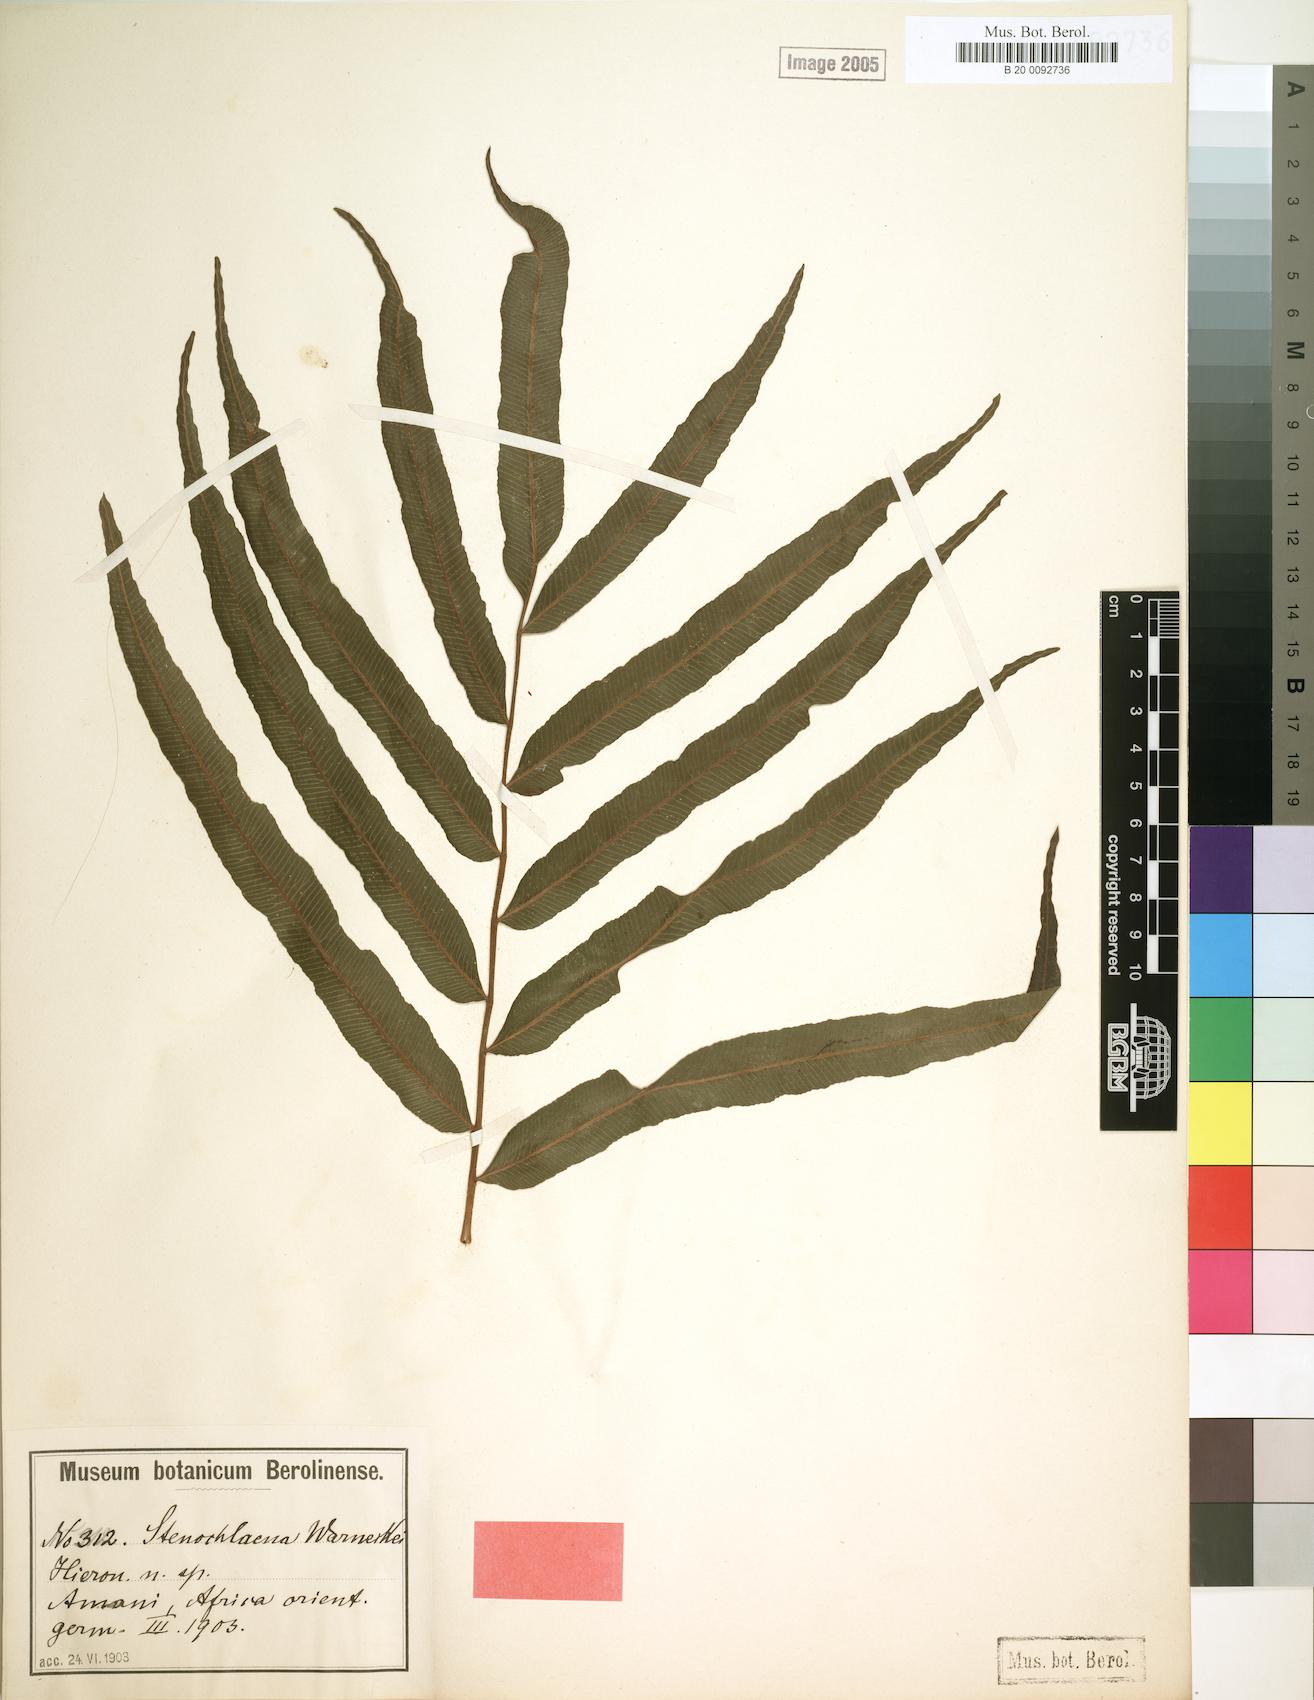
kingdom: Plantae
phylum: Tracheophyta
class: Polypodiopsida
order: Polypodiales
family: Lomariopsidaceae
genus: Lomariopsis
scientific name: Lomariopsis warneckei
